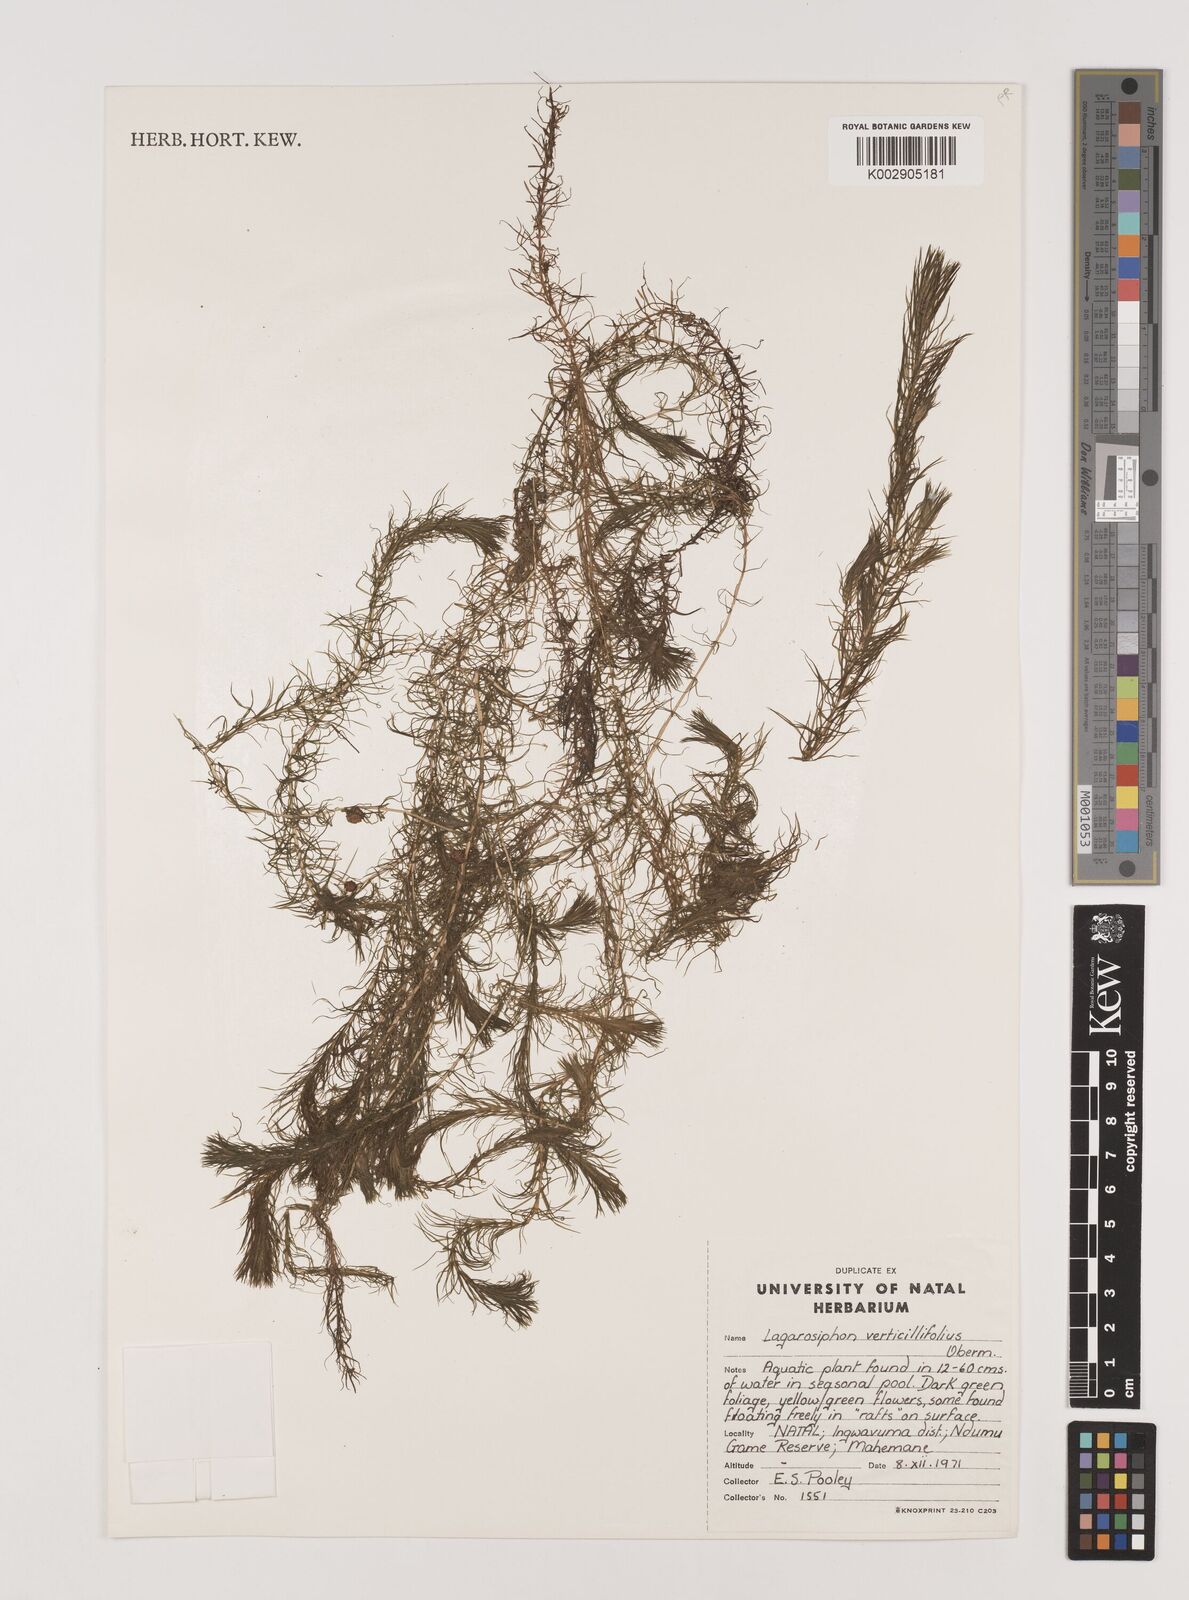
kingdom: Plantae
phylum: Tracheophyta
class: Liliopsida
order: Alismatales
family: Hydrocharitaceae
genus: Lagarosiphon
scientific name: Lagarosiphon verticillifolius
